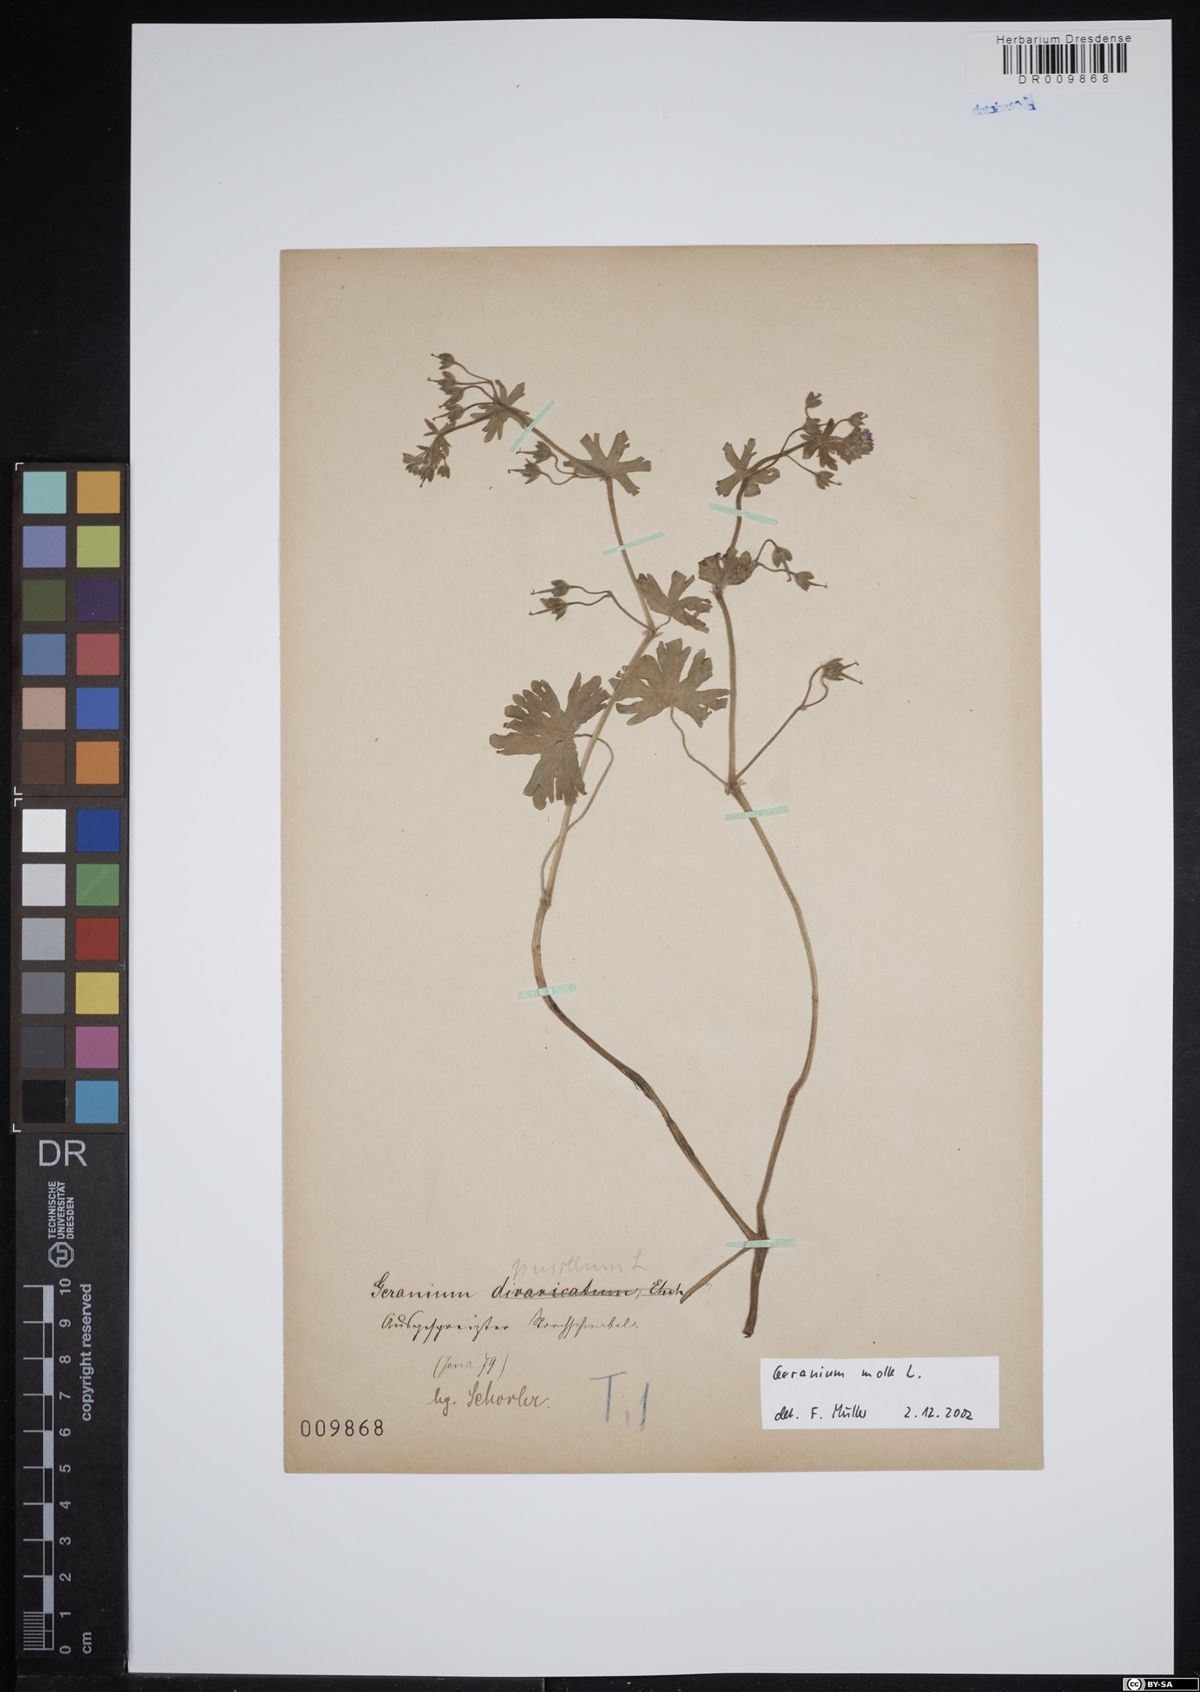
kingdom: Plantae
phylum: Tracheophyta
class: Magnoliopsida
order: Geraniales
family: Geraniaceae
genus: Geranium
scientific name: Geranium molle
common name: Dove's-foot crane's-bill
